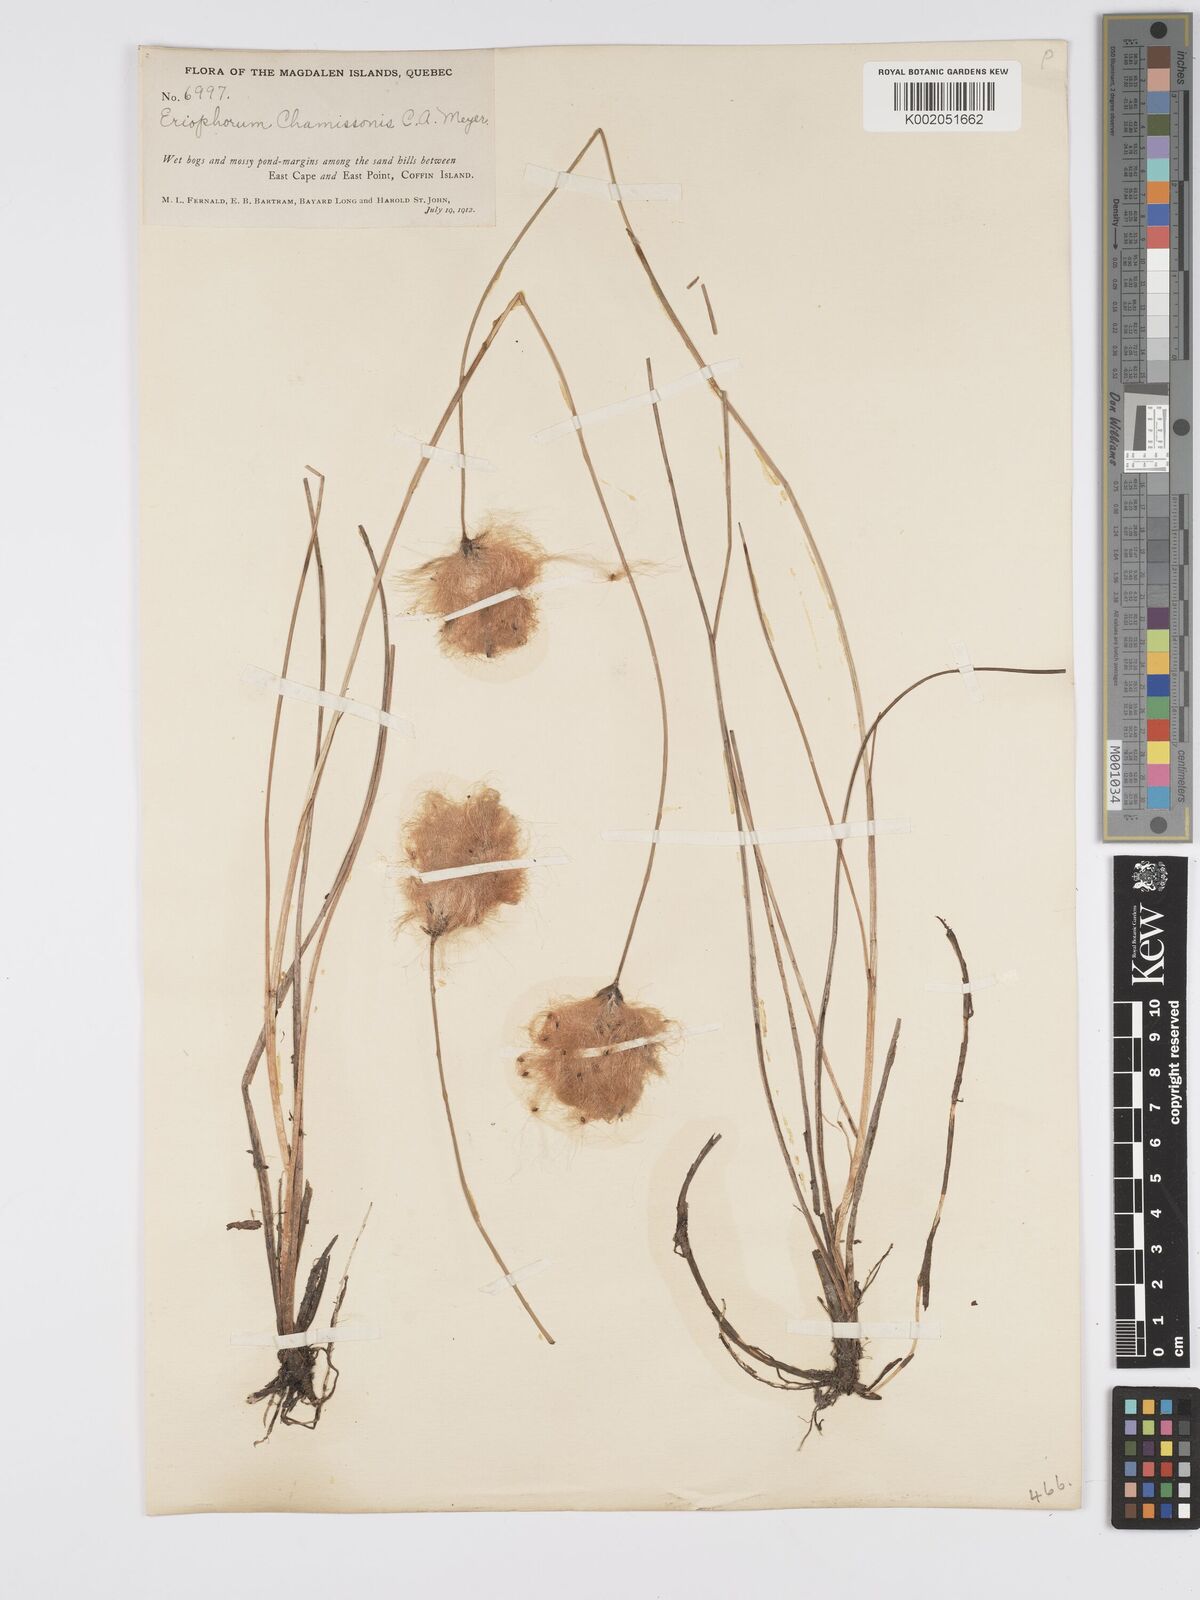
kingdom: Plantae
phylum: Tracheophyta
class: Liliopsida
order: Poales
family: Cyperaceae
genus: Eriophorum
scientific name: Eriophorum chamissonis
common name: Chamisso's cottongrass
